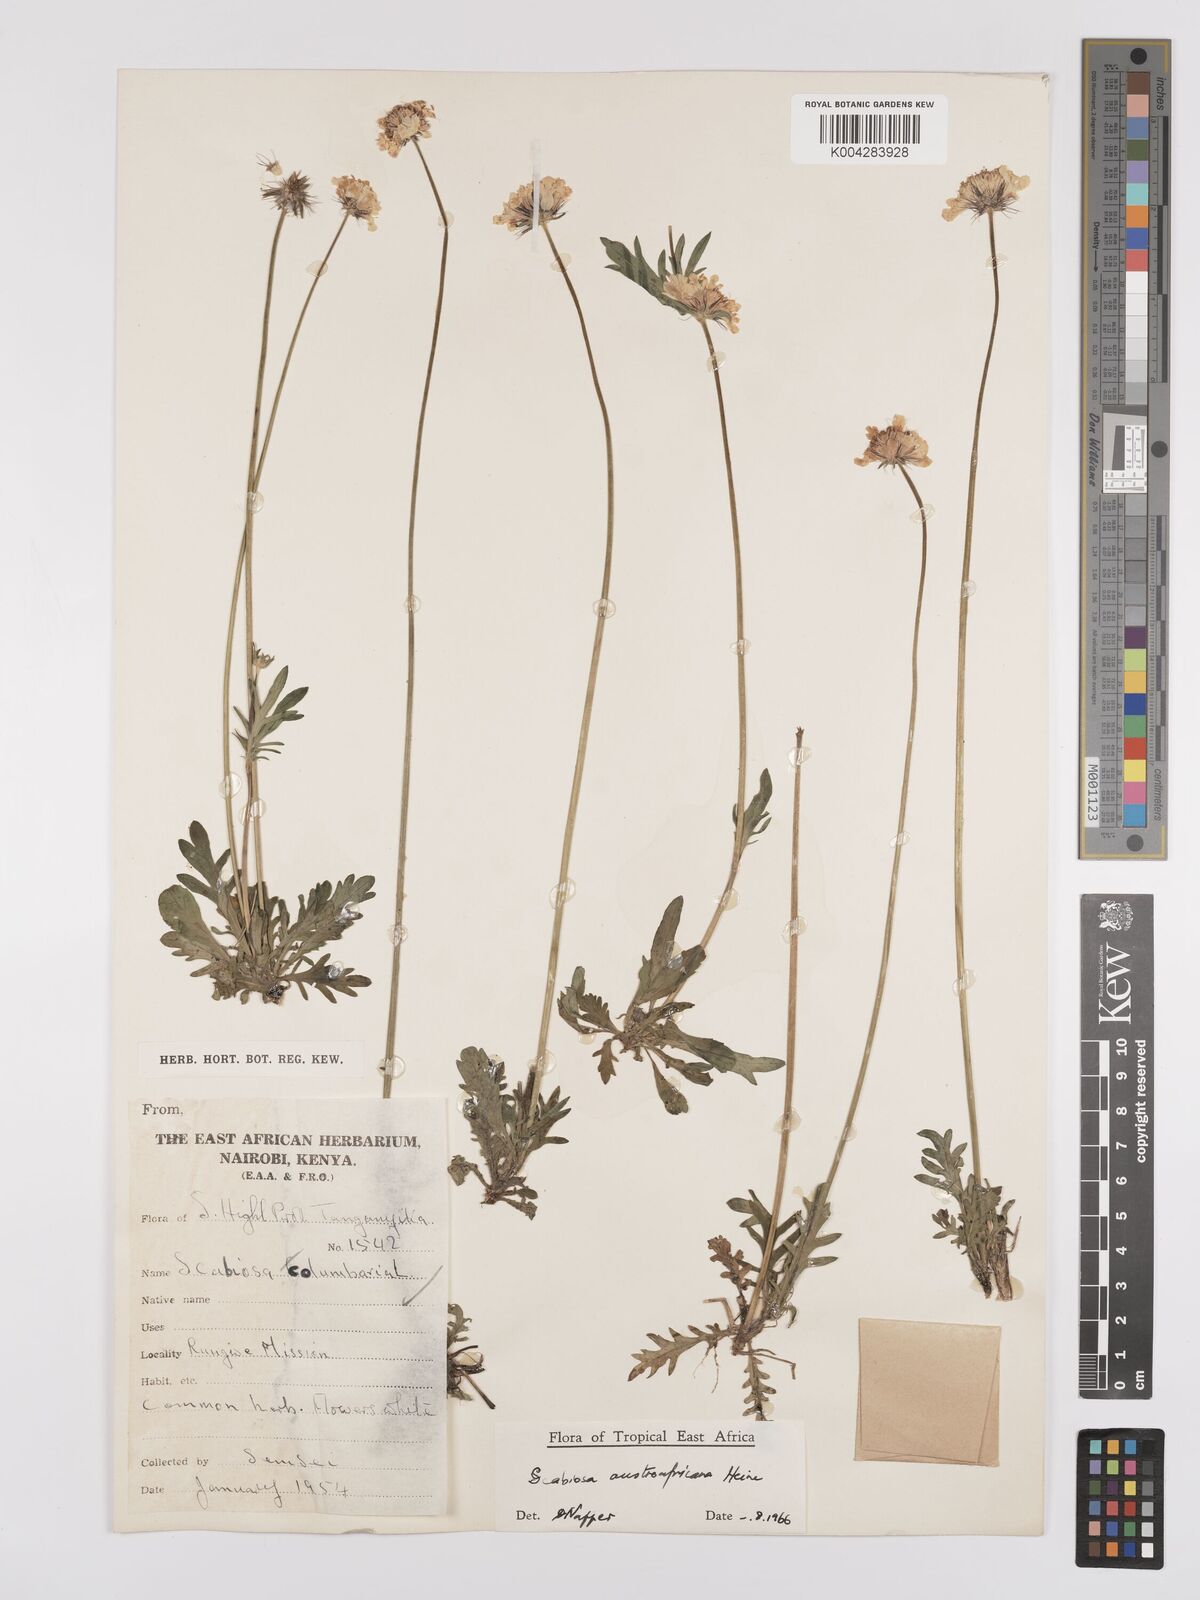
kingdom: Plantae
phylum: Tracheophyta
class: Magnoliopsida
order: Dipsacales
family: Caprifoliaceae
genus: Scabiosa
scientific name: Scabiosa austroafricana
